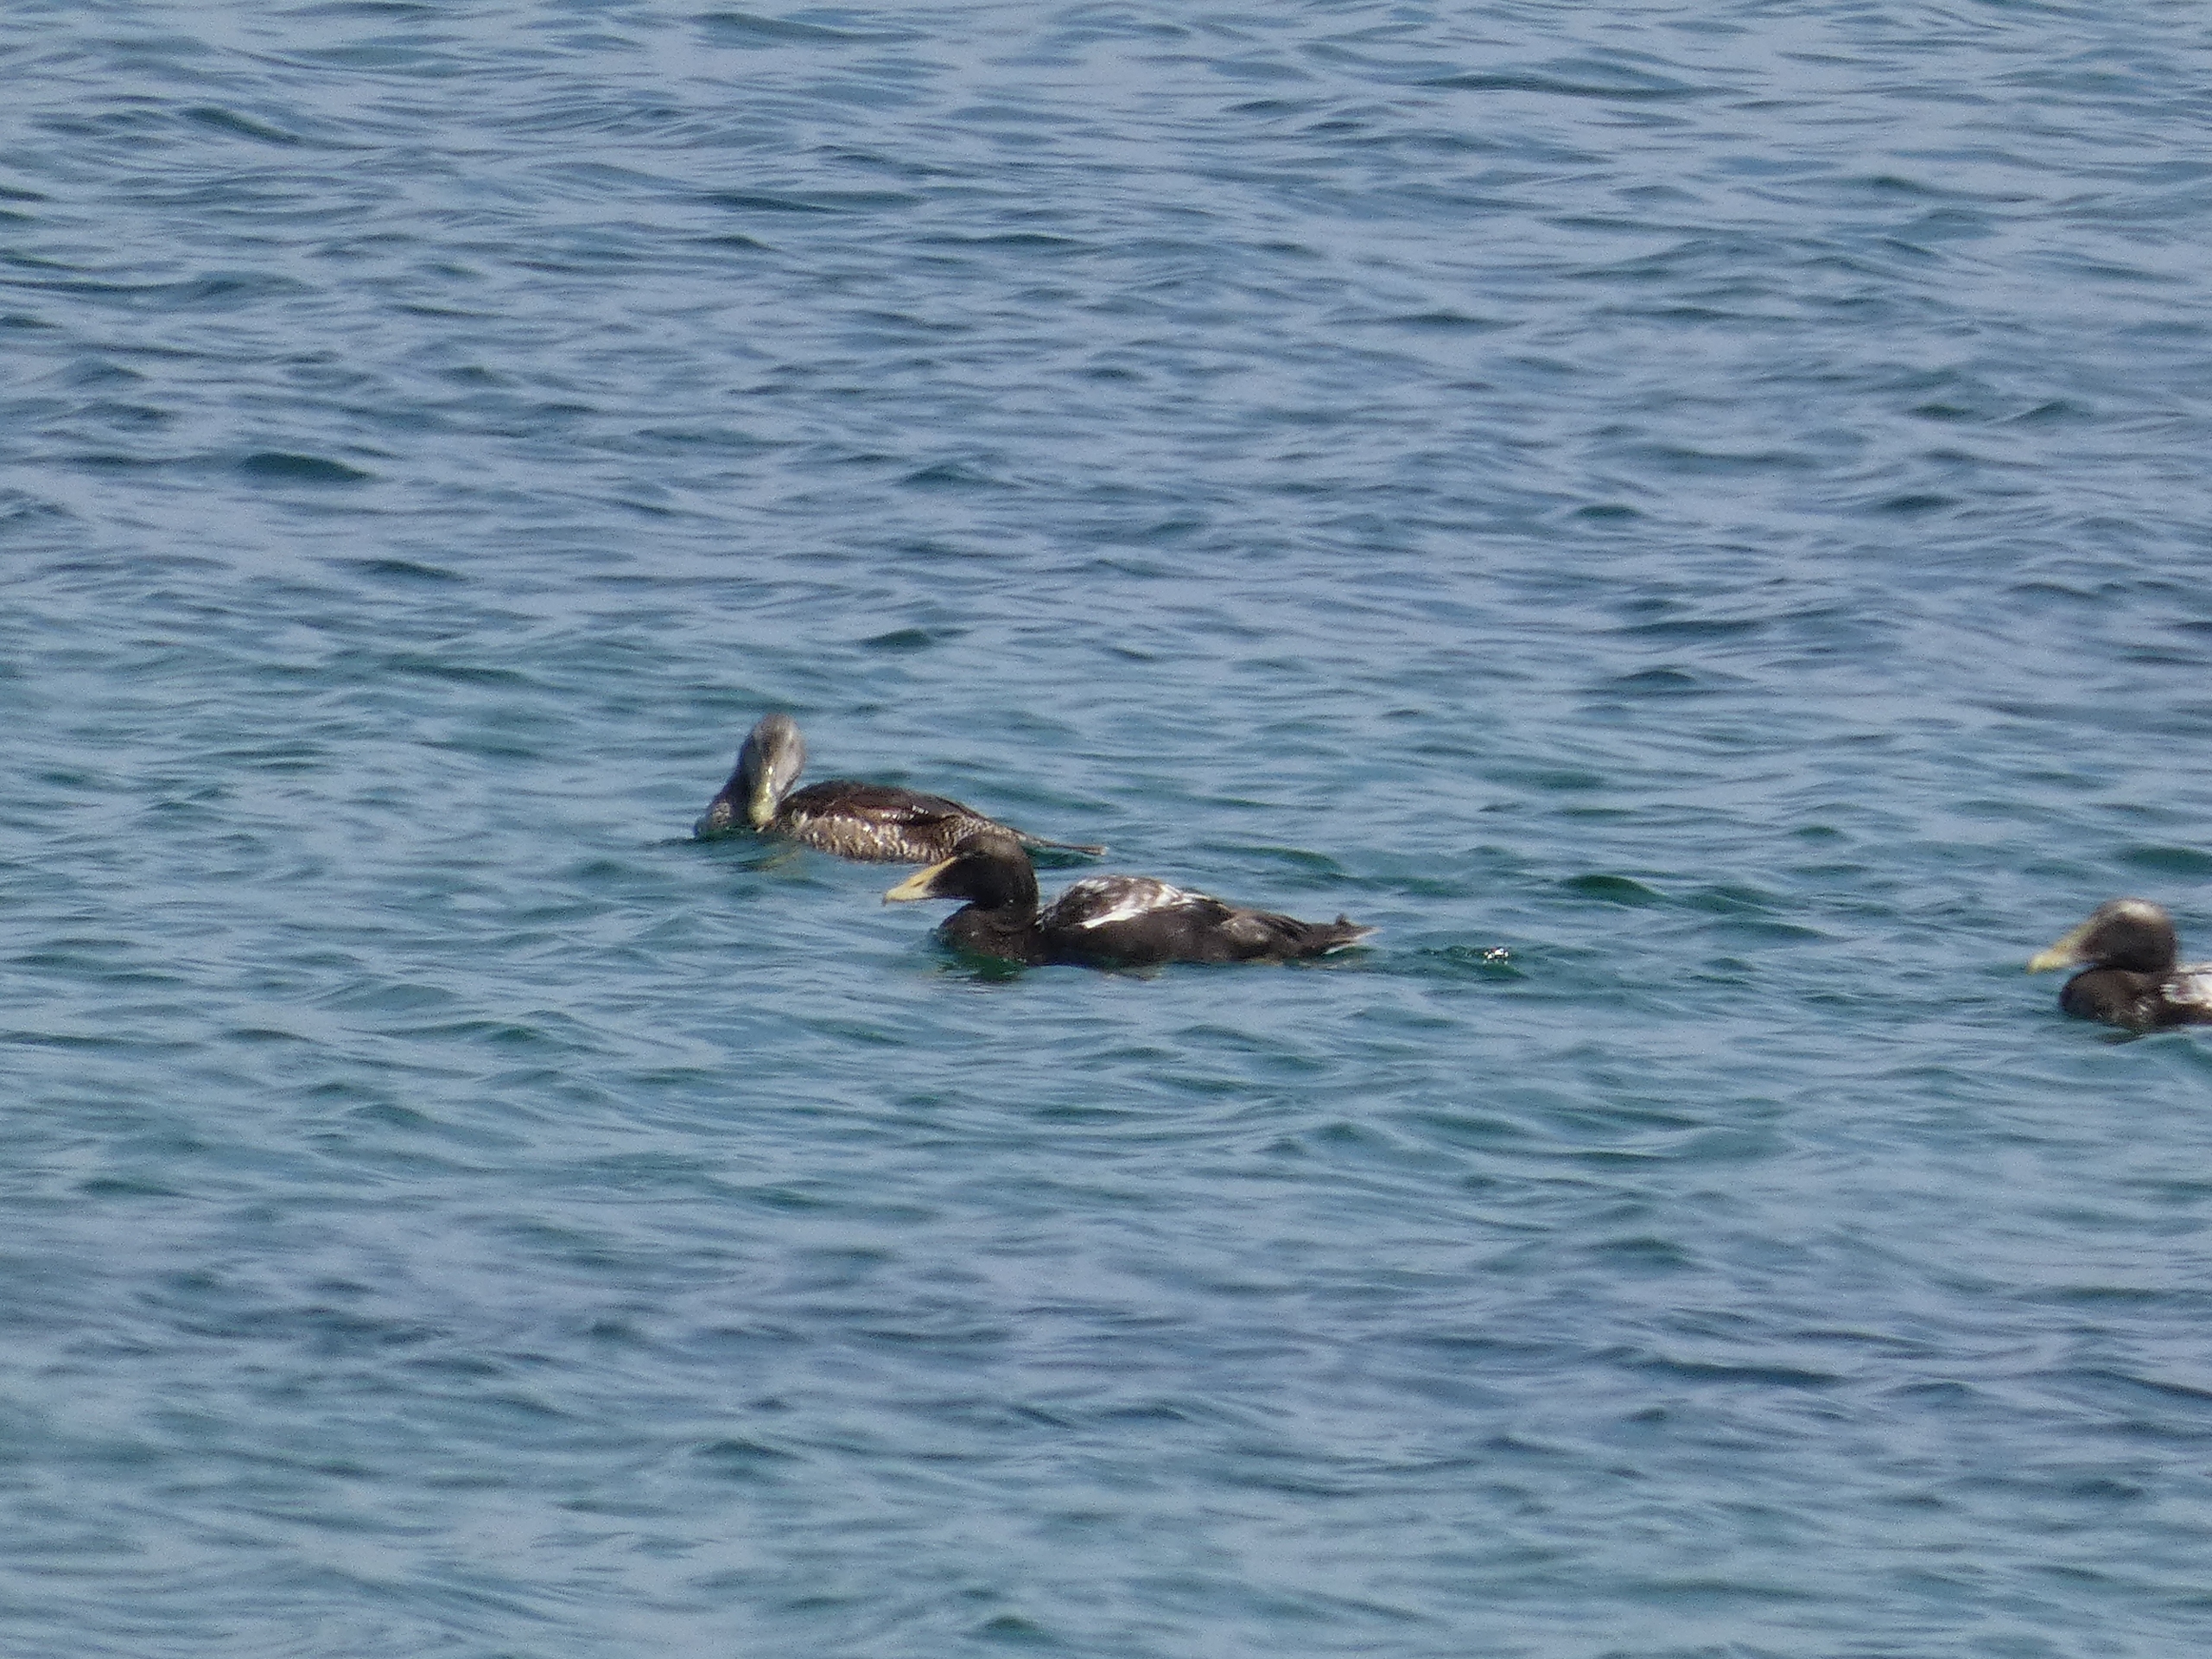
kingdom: Animalia
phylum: Chordata
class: Aves
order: Anseriformes
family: Anatidae
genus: Somateria
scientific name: Somateria mollissima
